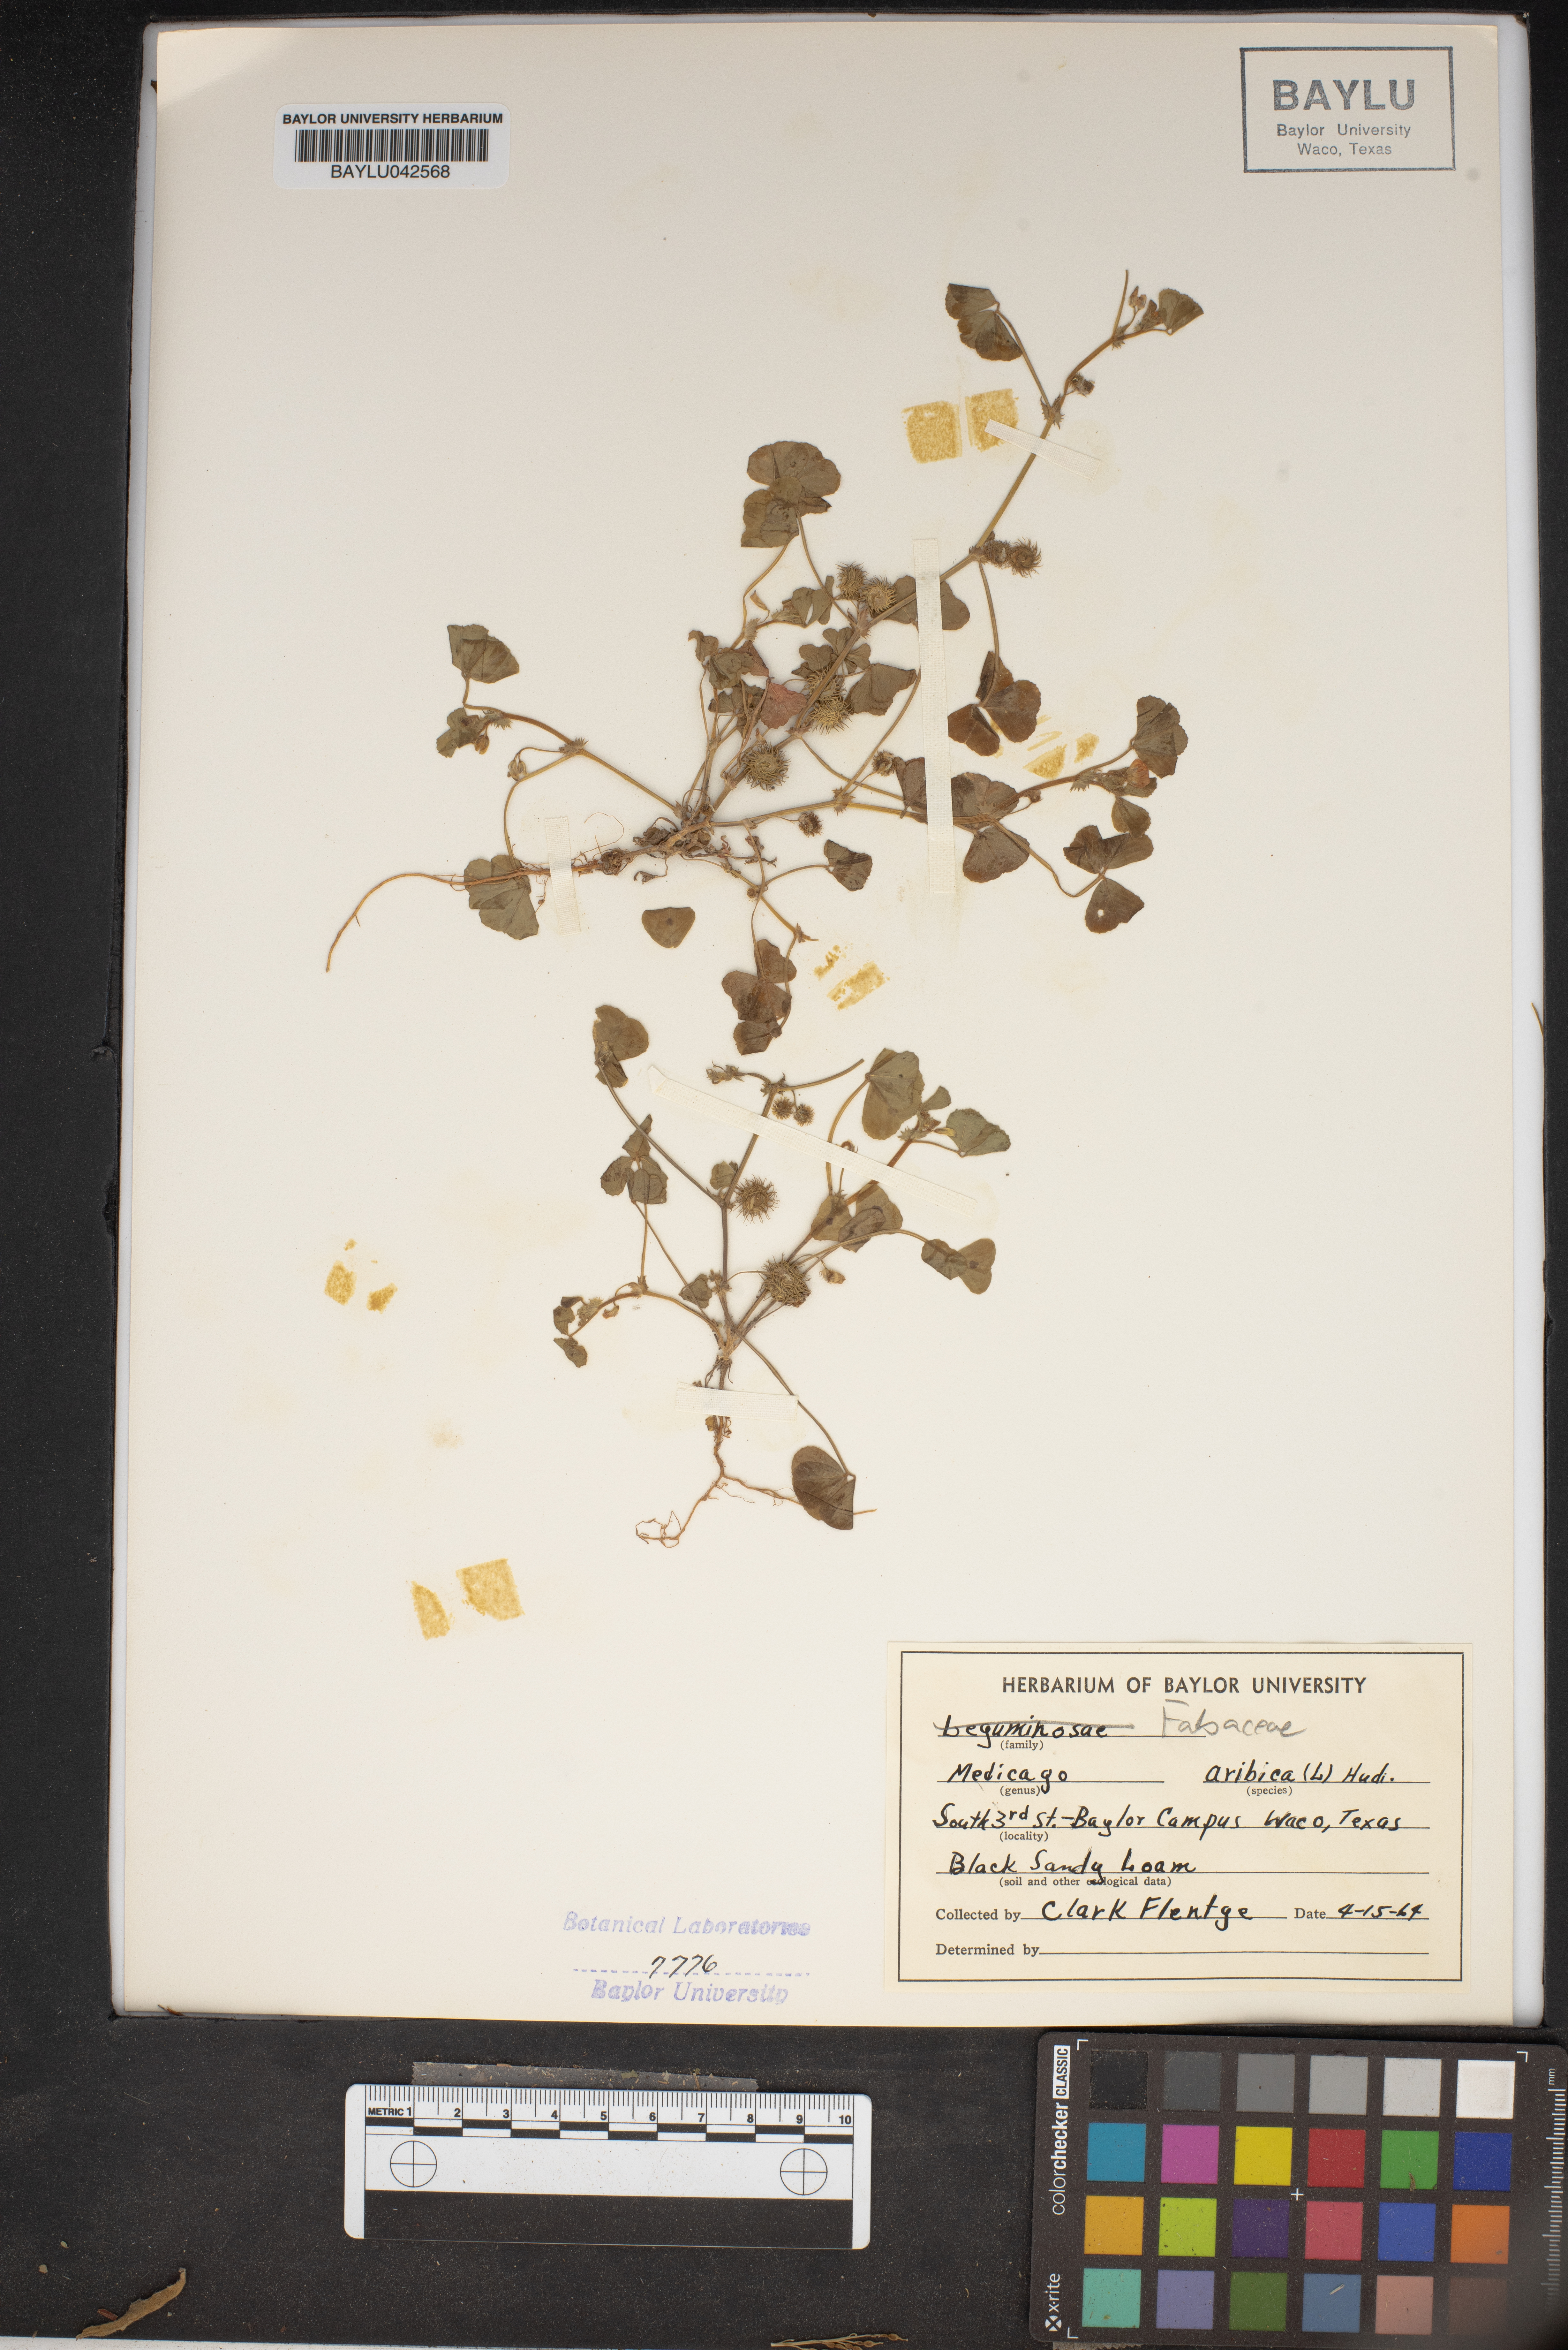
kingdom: Plantae
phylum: Tracheophyta
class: Magnoliopsida
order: Fabales
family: Fabaceae
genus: Medicago
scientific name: Medicago arabica
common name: Spotted medick
